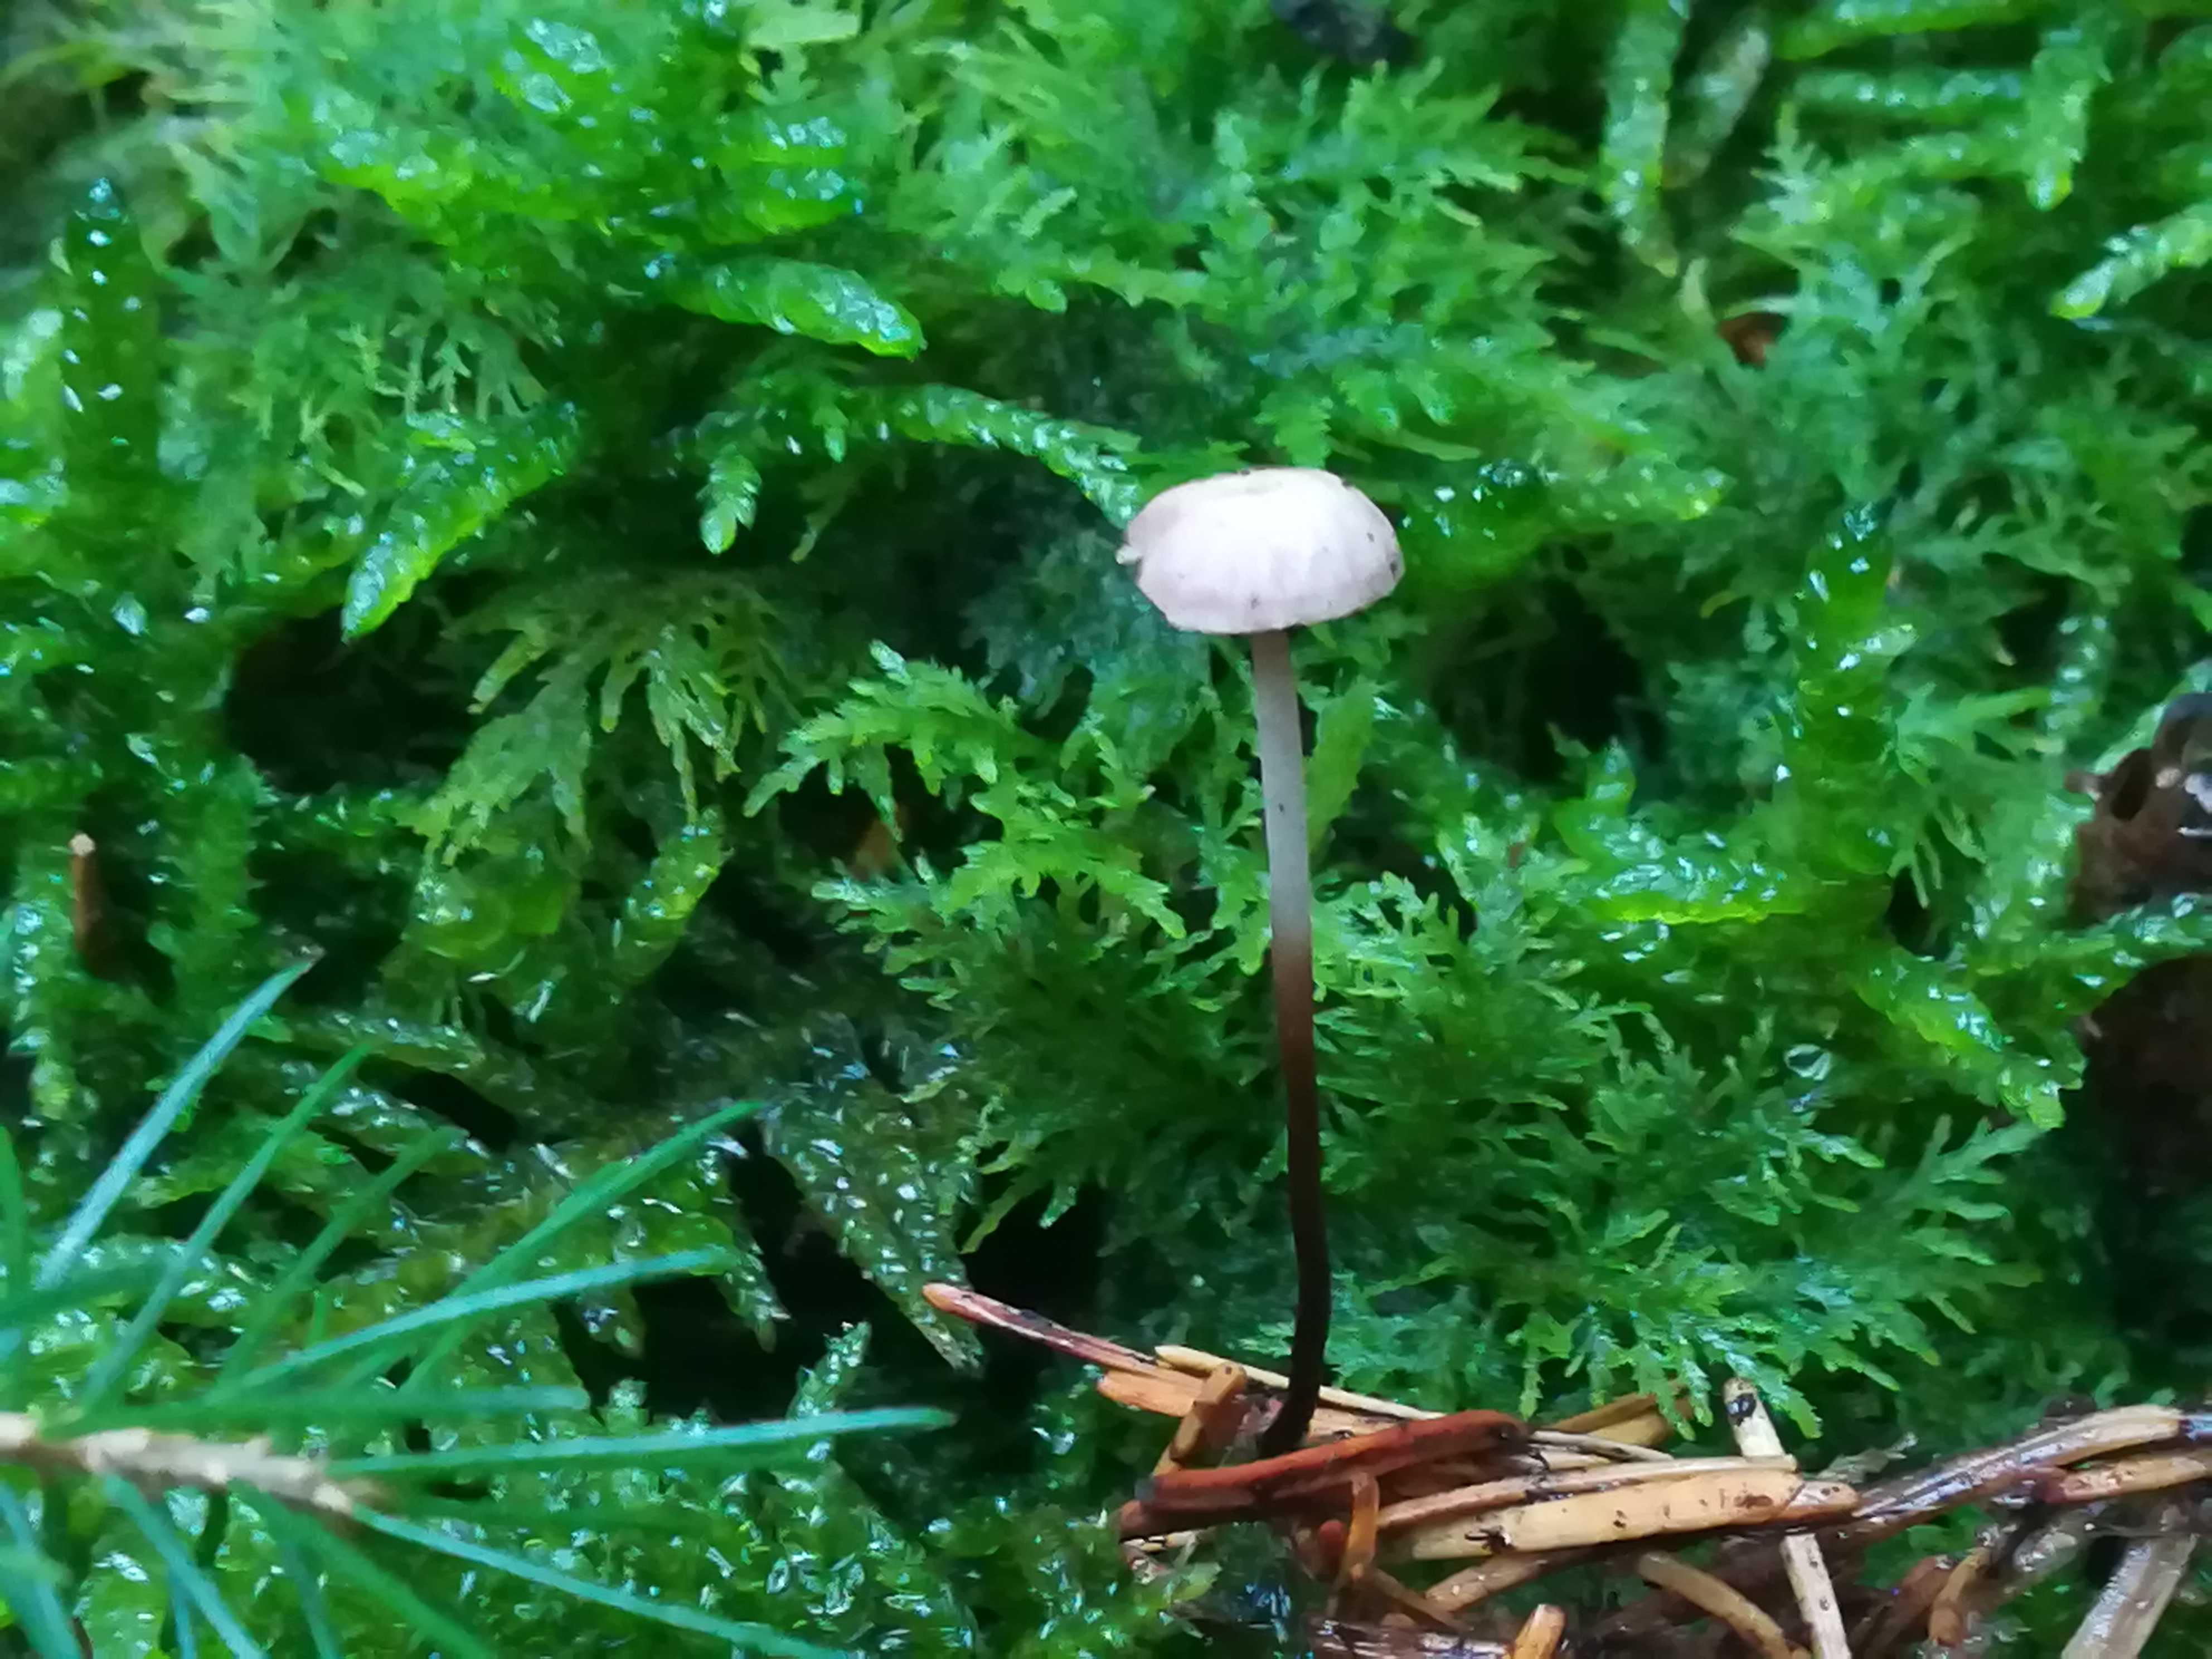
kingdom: Fungi
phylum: Basidiomycota
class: Agaricomycetes
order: Agaricales
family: Omphalotaceae
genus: Paragymnopus
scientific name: Paragymnopus perforans
